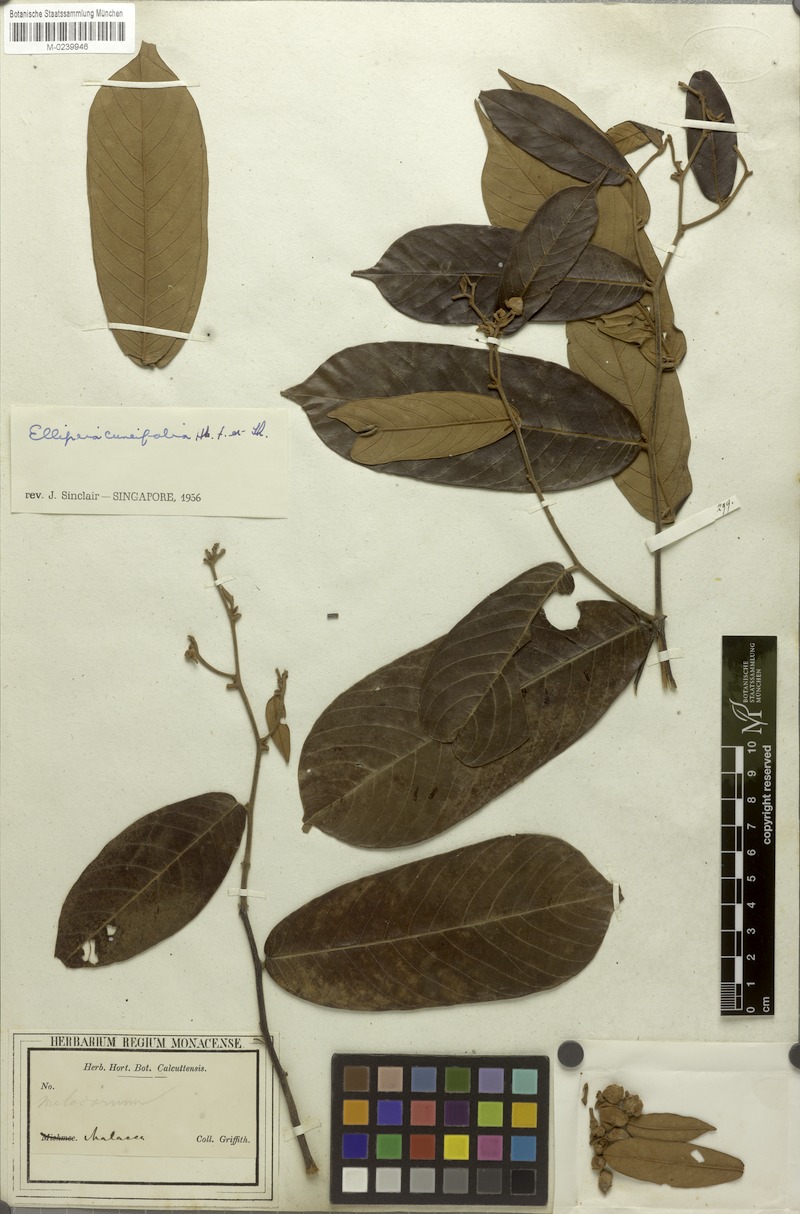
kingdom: Plantae
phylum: Tracheophyta
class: Magnoliopsida
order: Magnoliales
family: Annonaceae
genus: Uvaria
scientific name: Uvaria cuneifolia
